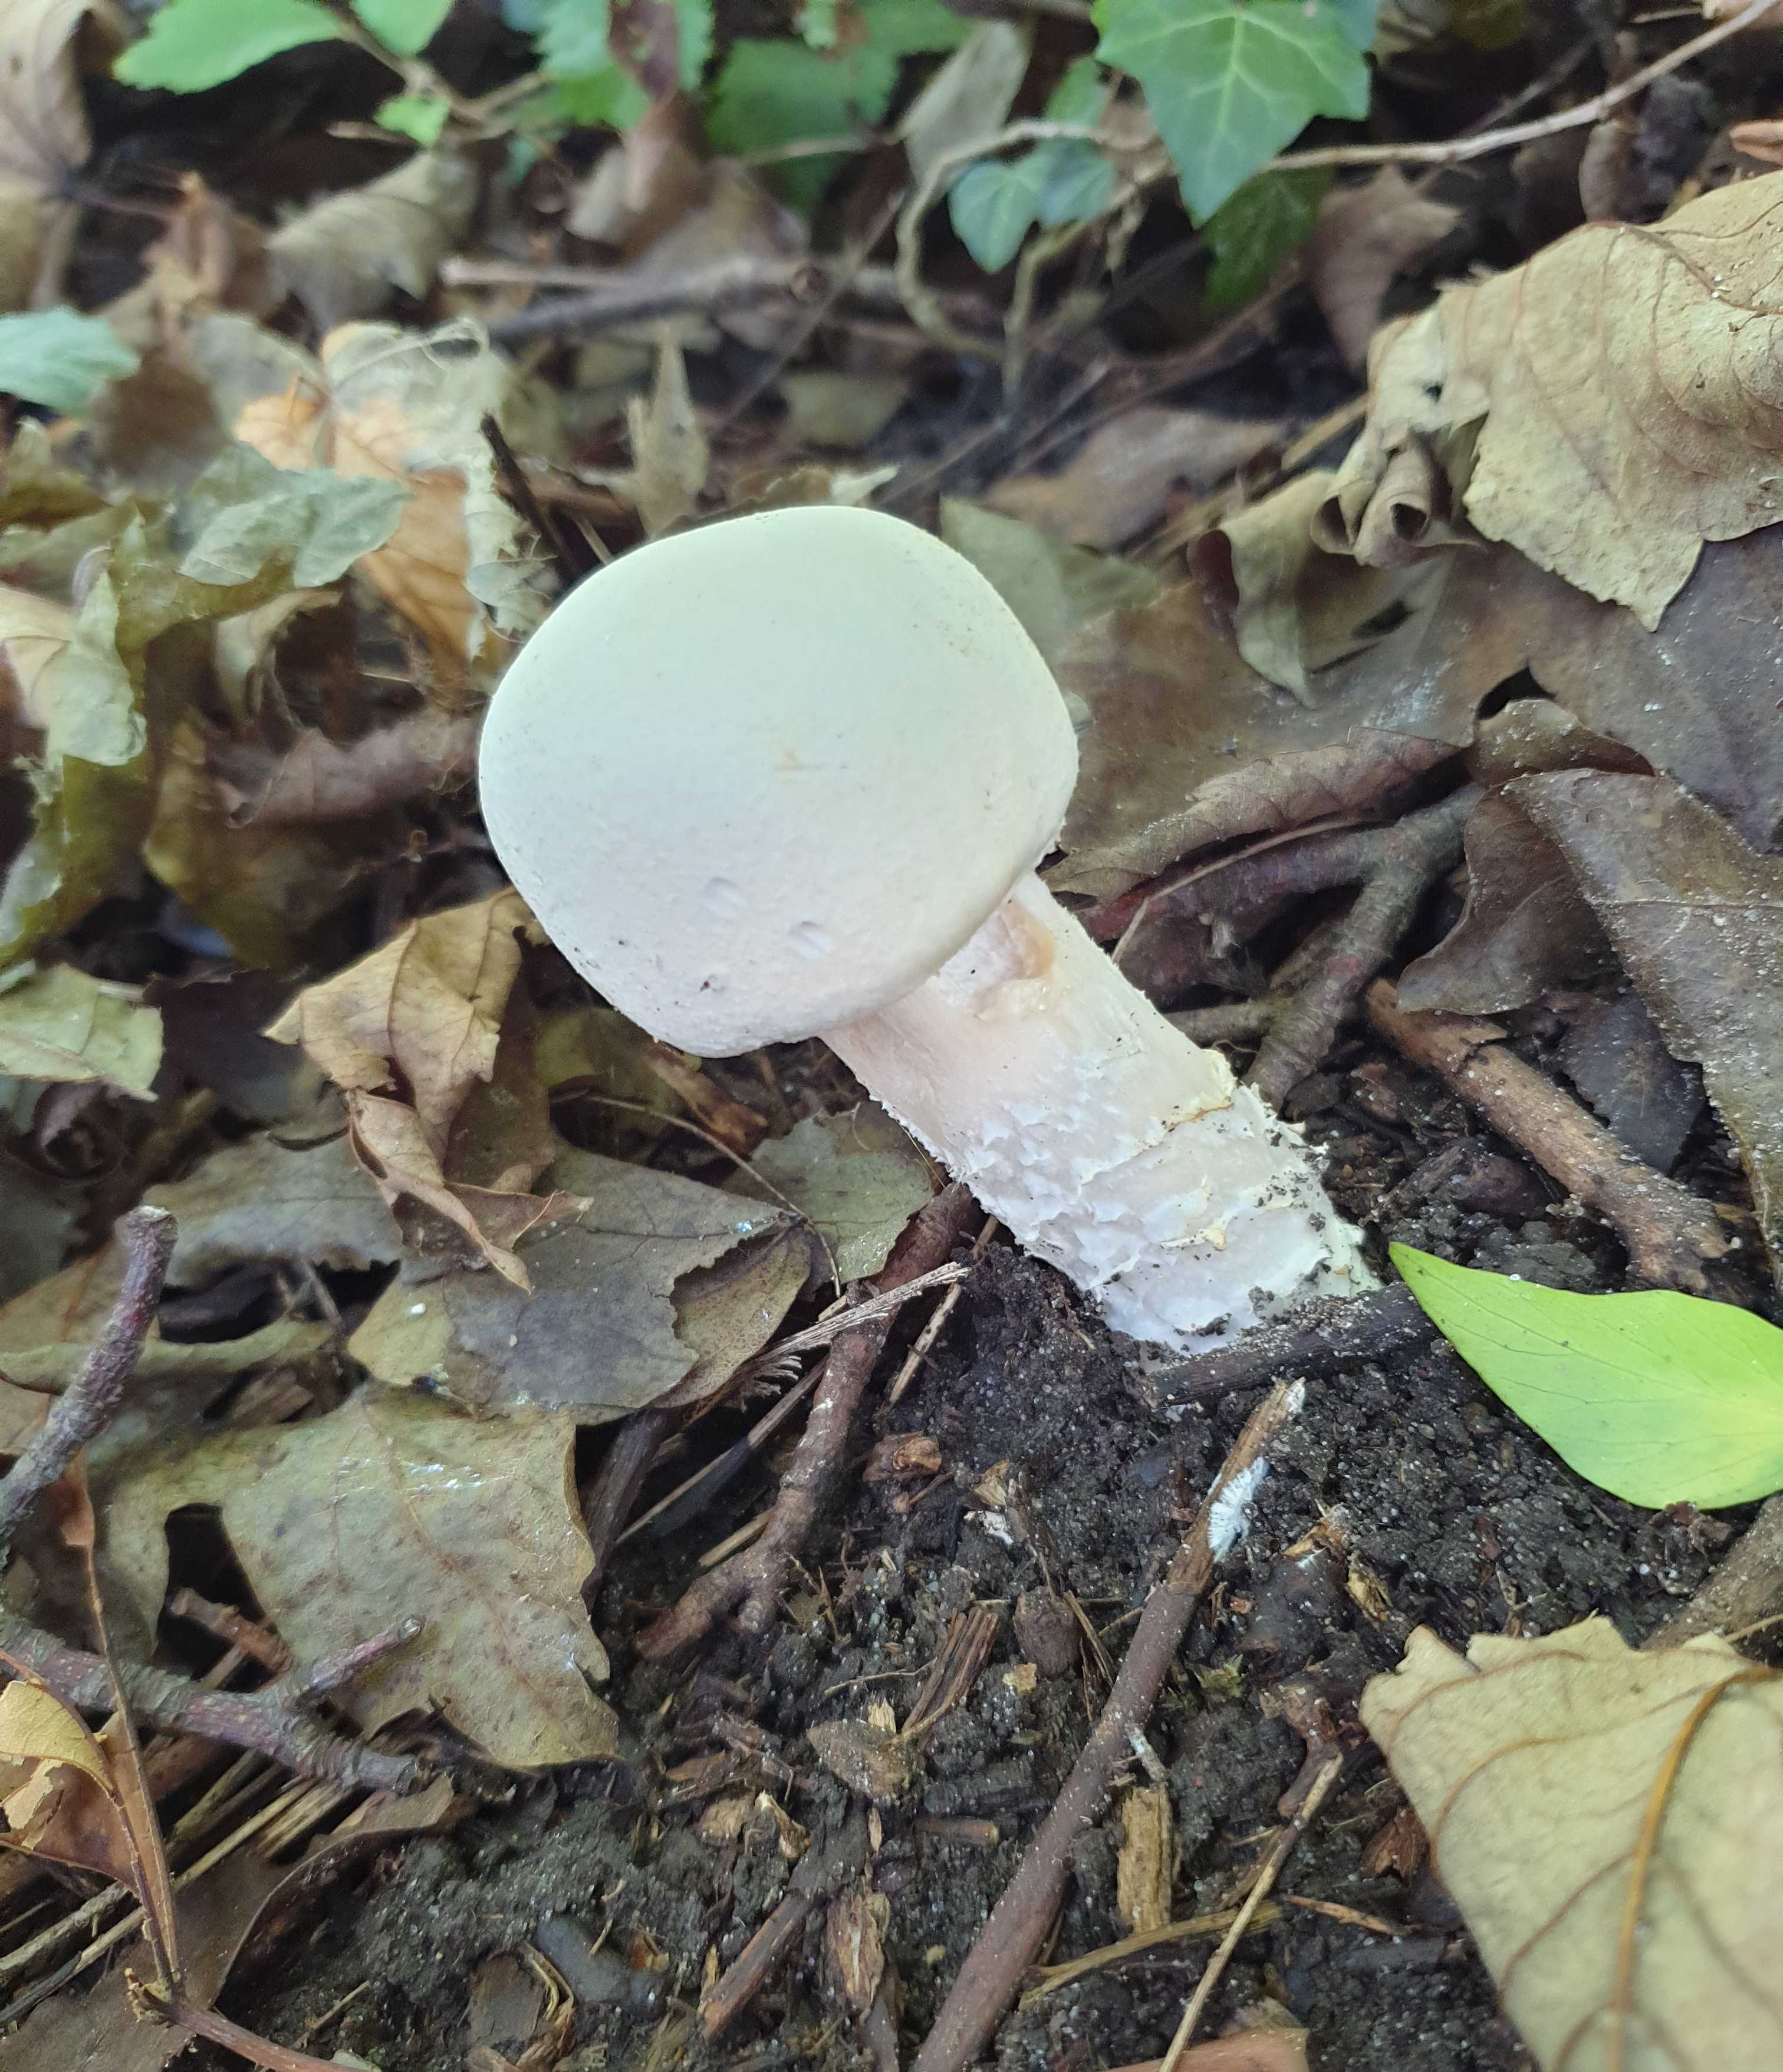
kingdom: Fungi
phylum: Basidiomycota
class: Agaricomycetes
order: Agaricales
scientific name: Agaricales
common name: champignonordenen
